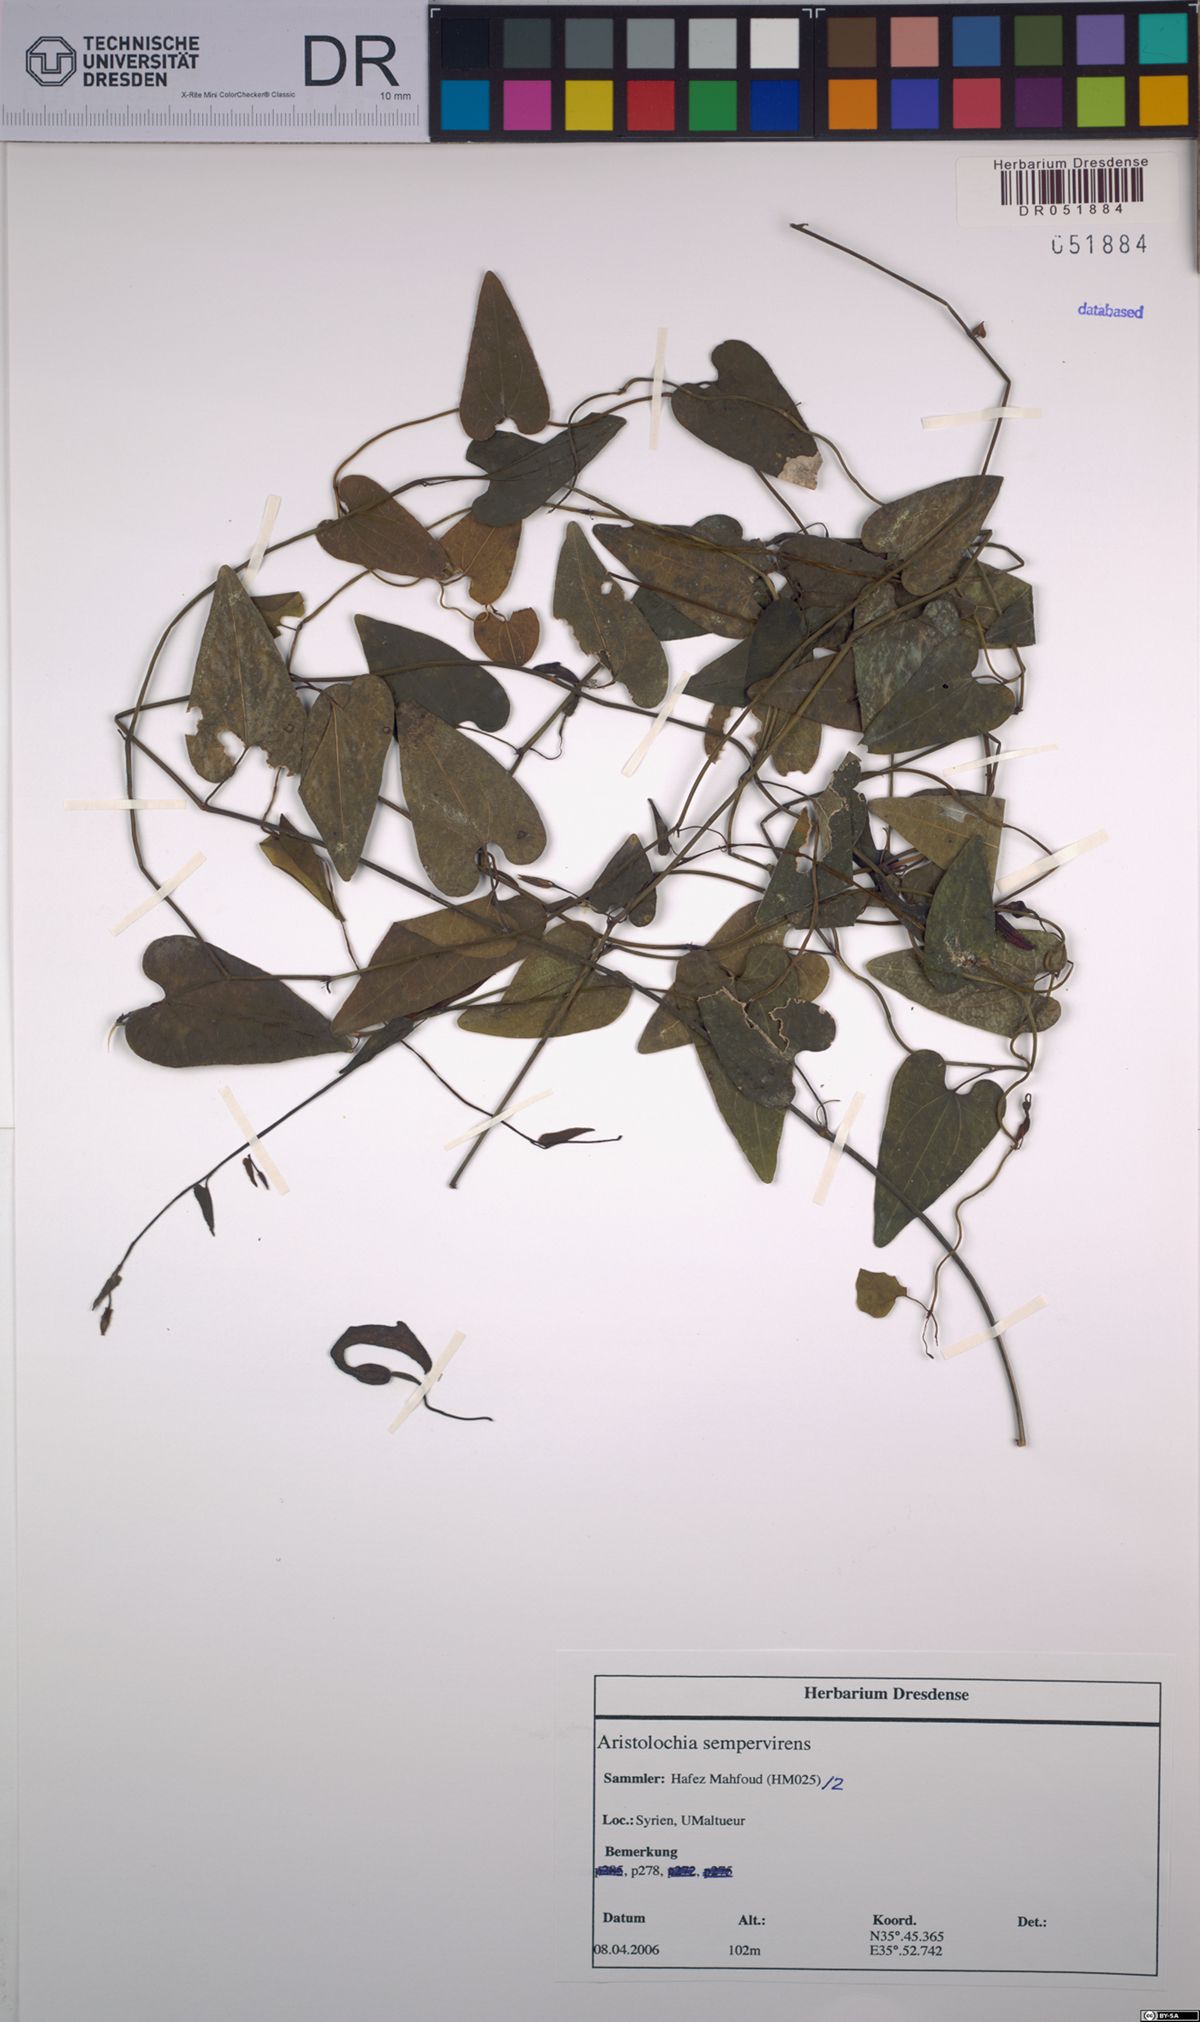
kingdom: Plantae
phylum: Tracheophyta
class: Magnoliopsida
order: Piperales
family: Aristolochiaceae
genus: Aristolochia
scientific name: Aristolochia sempervirens
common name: Long birthwort
